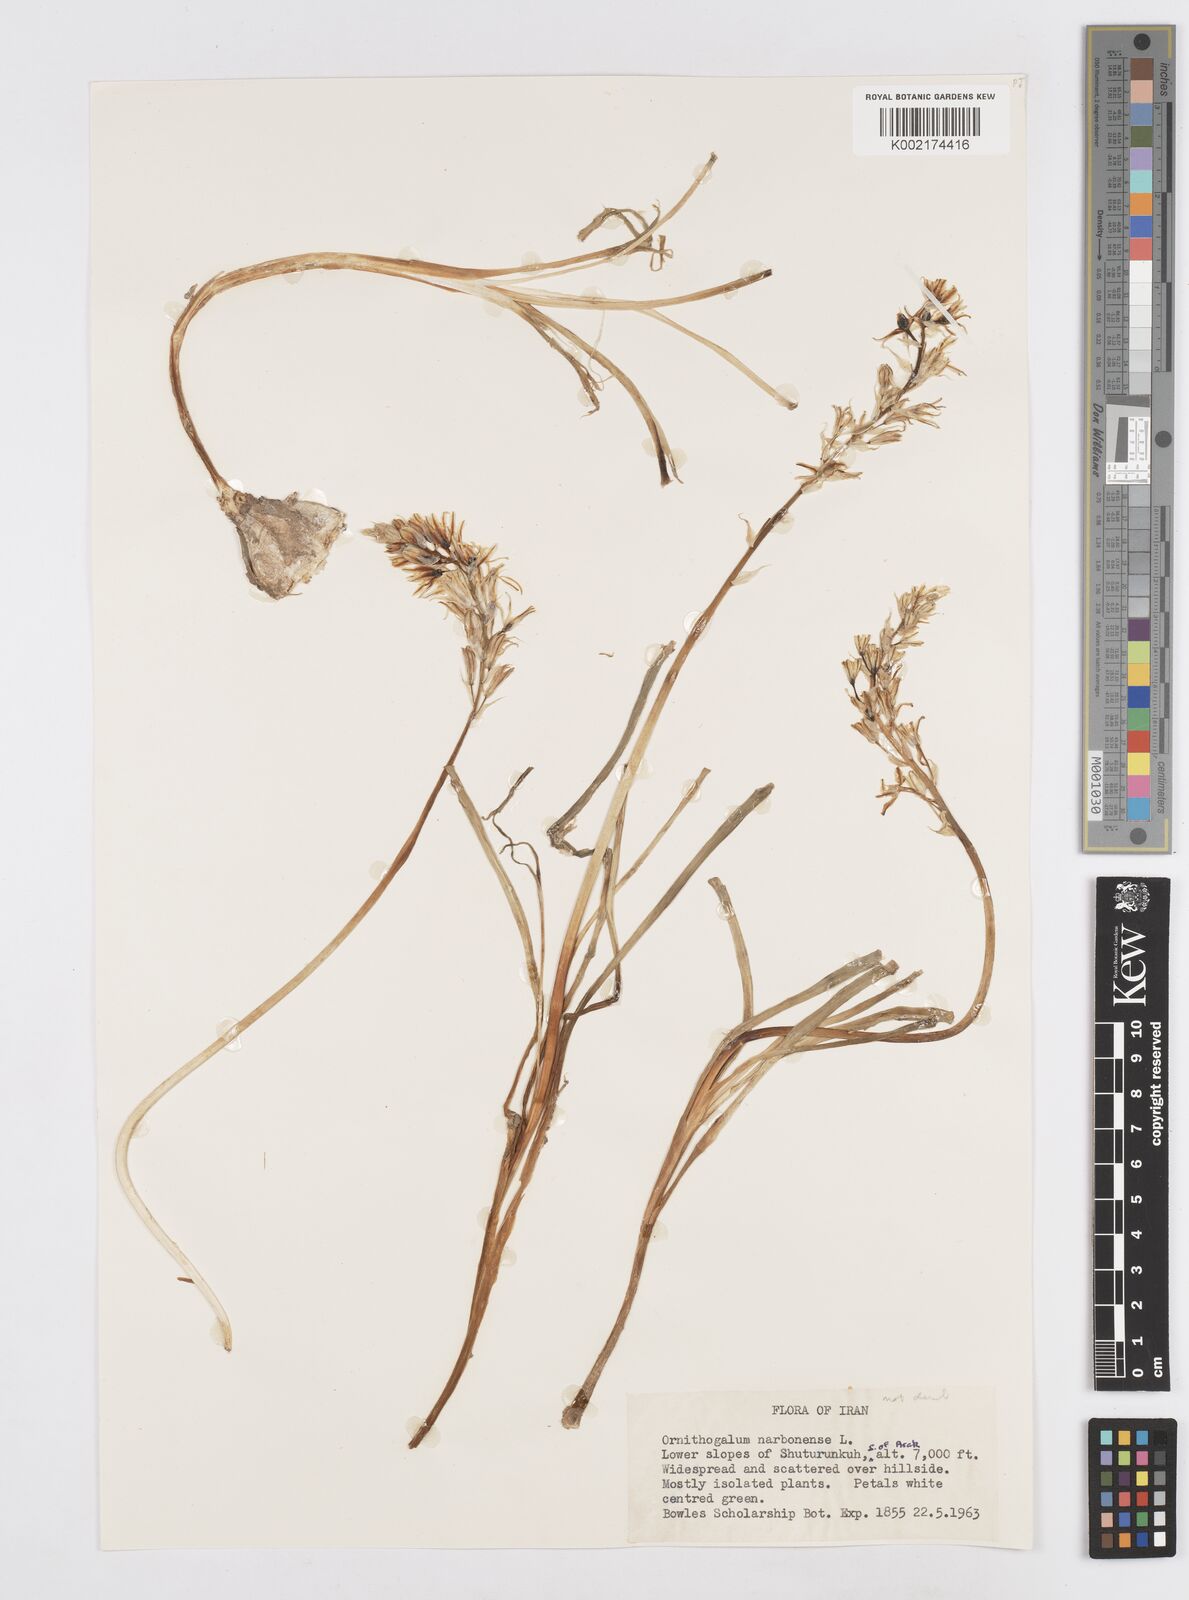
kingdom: Plantae
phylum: Tracheophyta
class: Liliopsida
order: Asparagales
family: Asparagaceae
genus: Ornithogalum
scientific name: Ornithogalum narbonense
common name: Bath-asparagus
